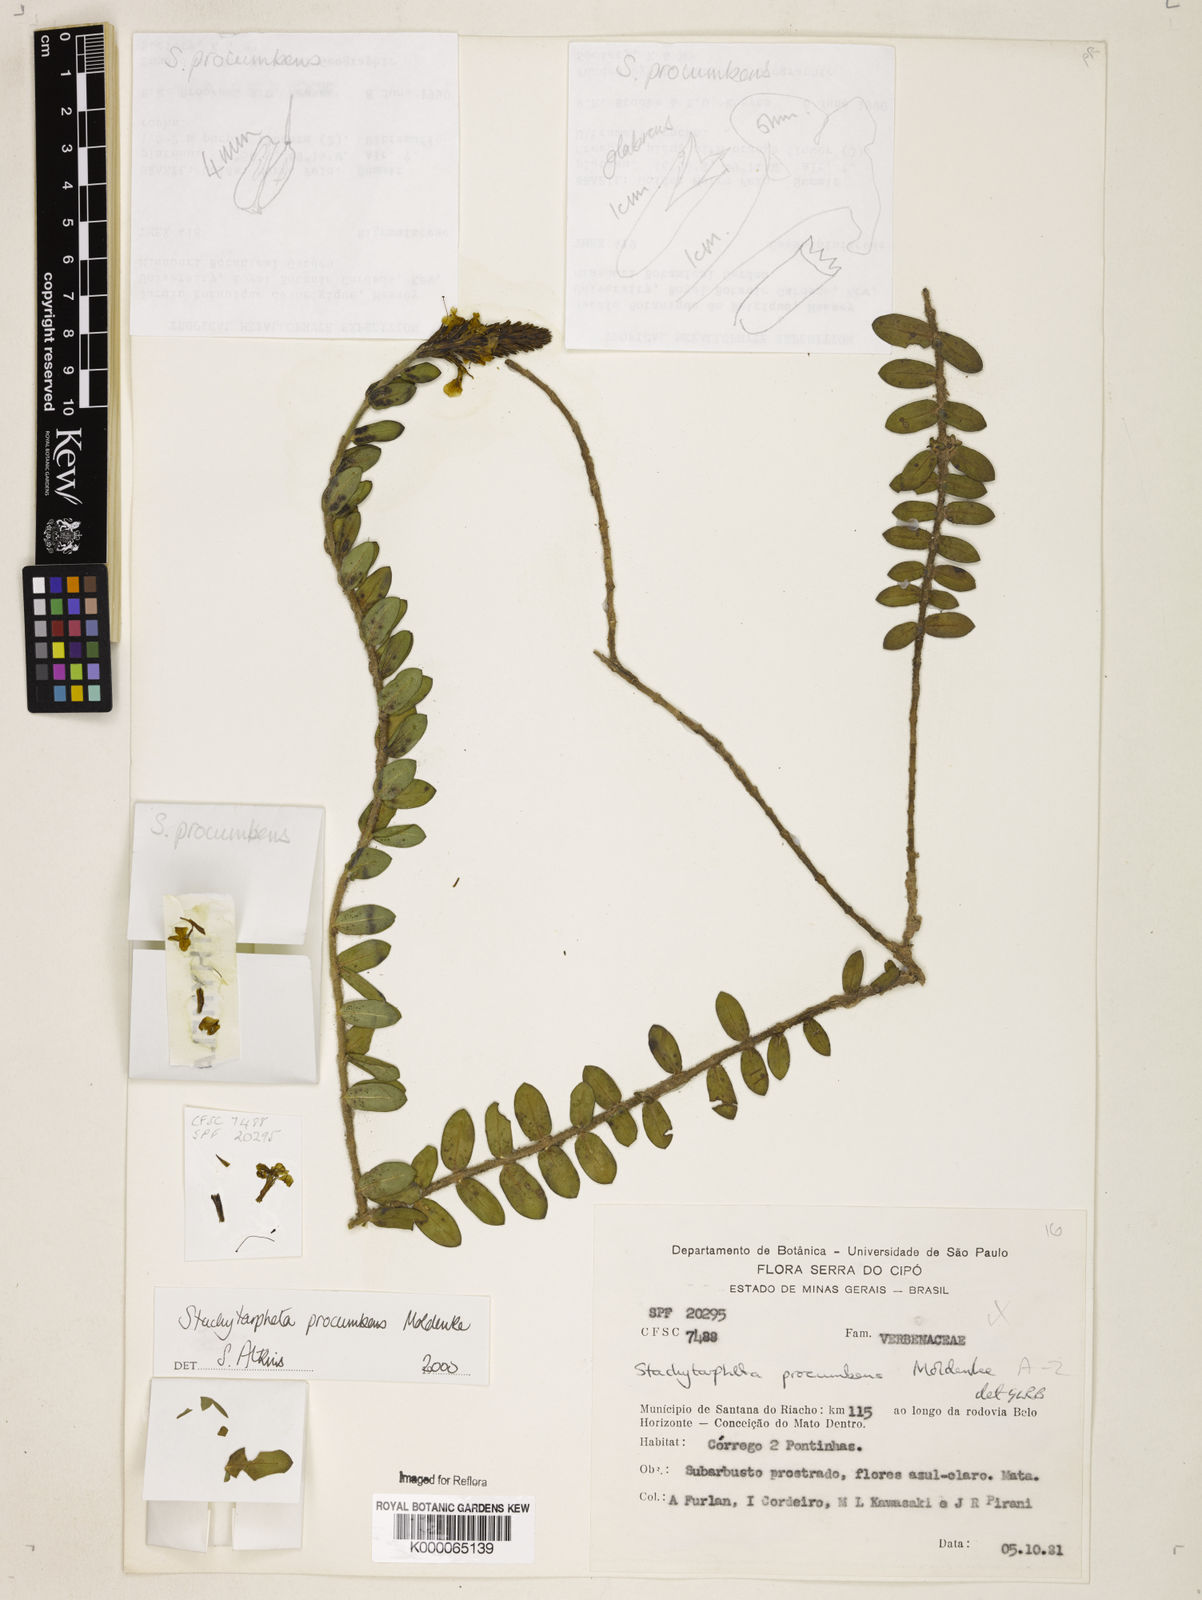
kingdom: Plantae
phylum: Tracheophyta
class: Magnoliopsida
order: Lamiales
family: Verbenaceae
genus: Stachytarpheta
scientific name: Stachytarpheta procumbens
